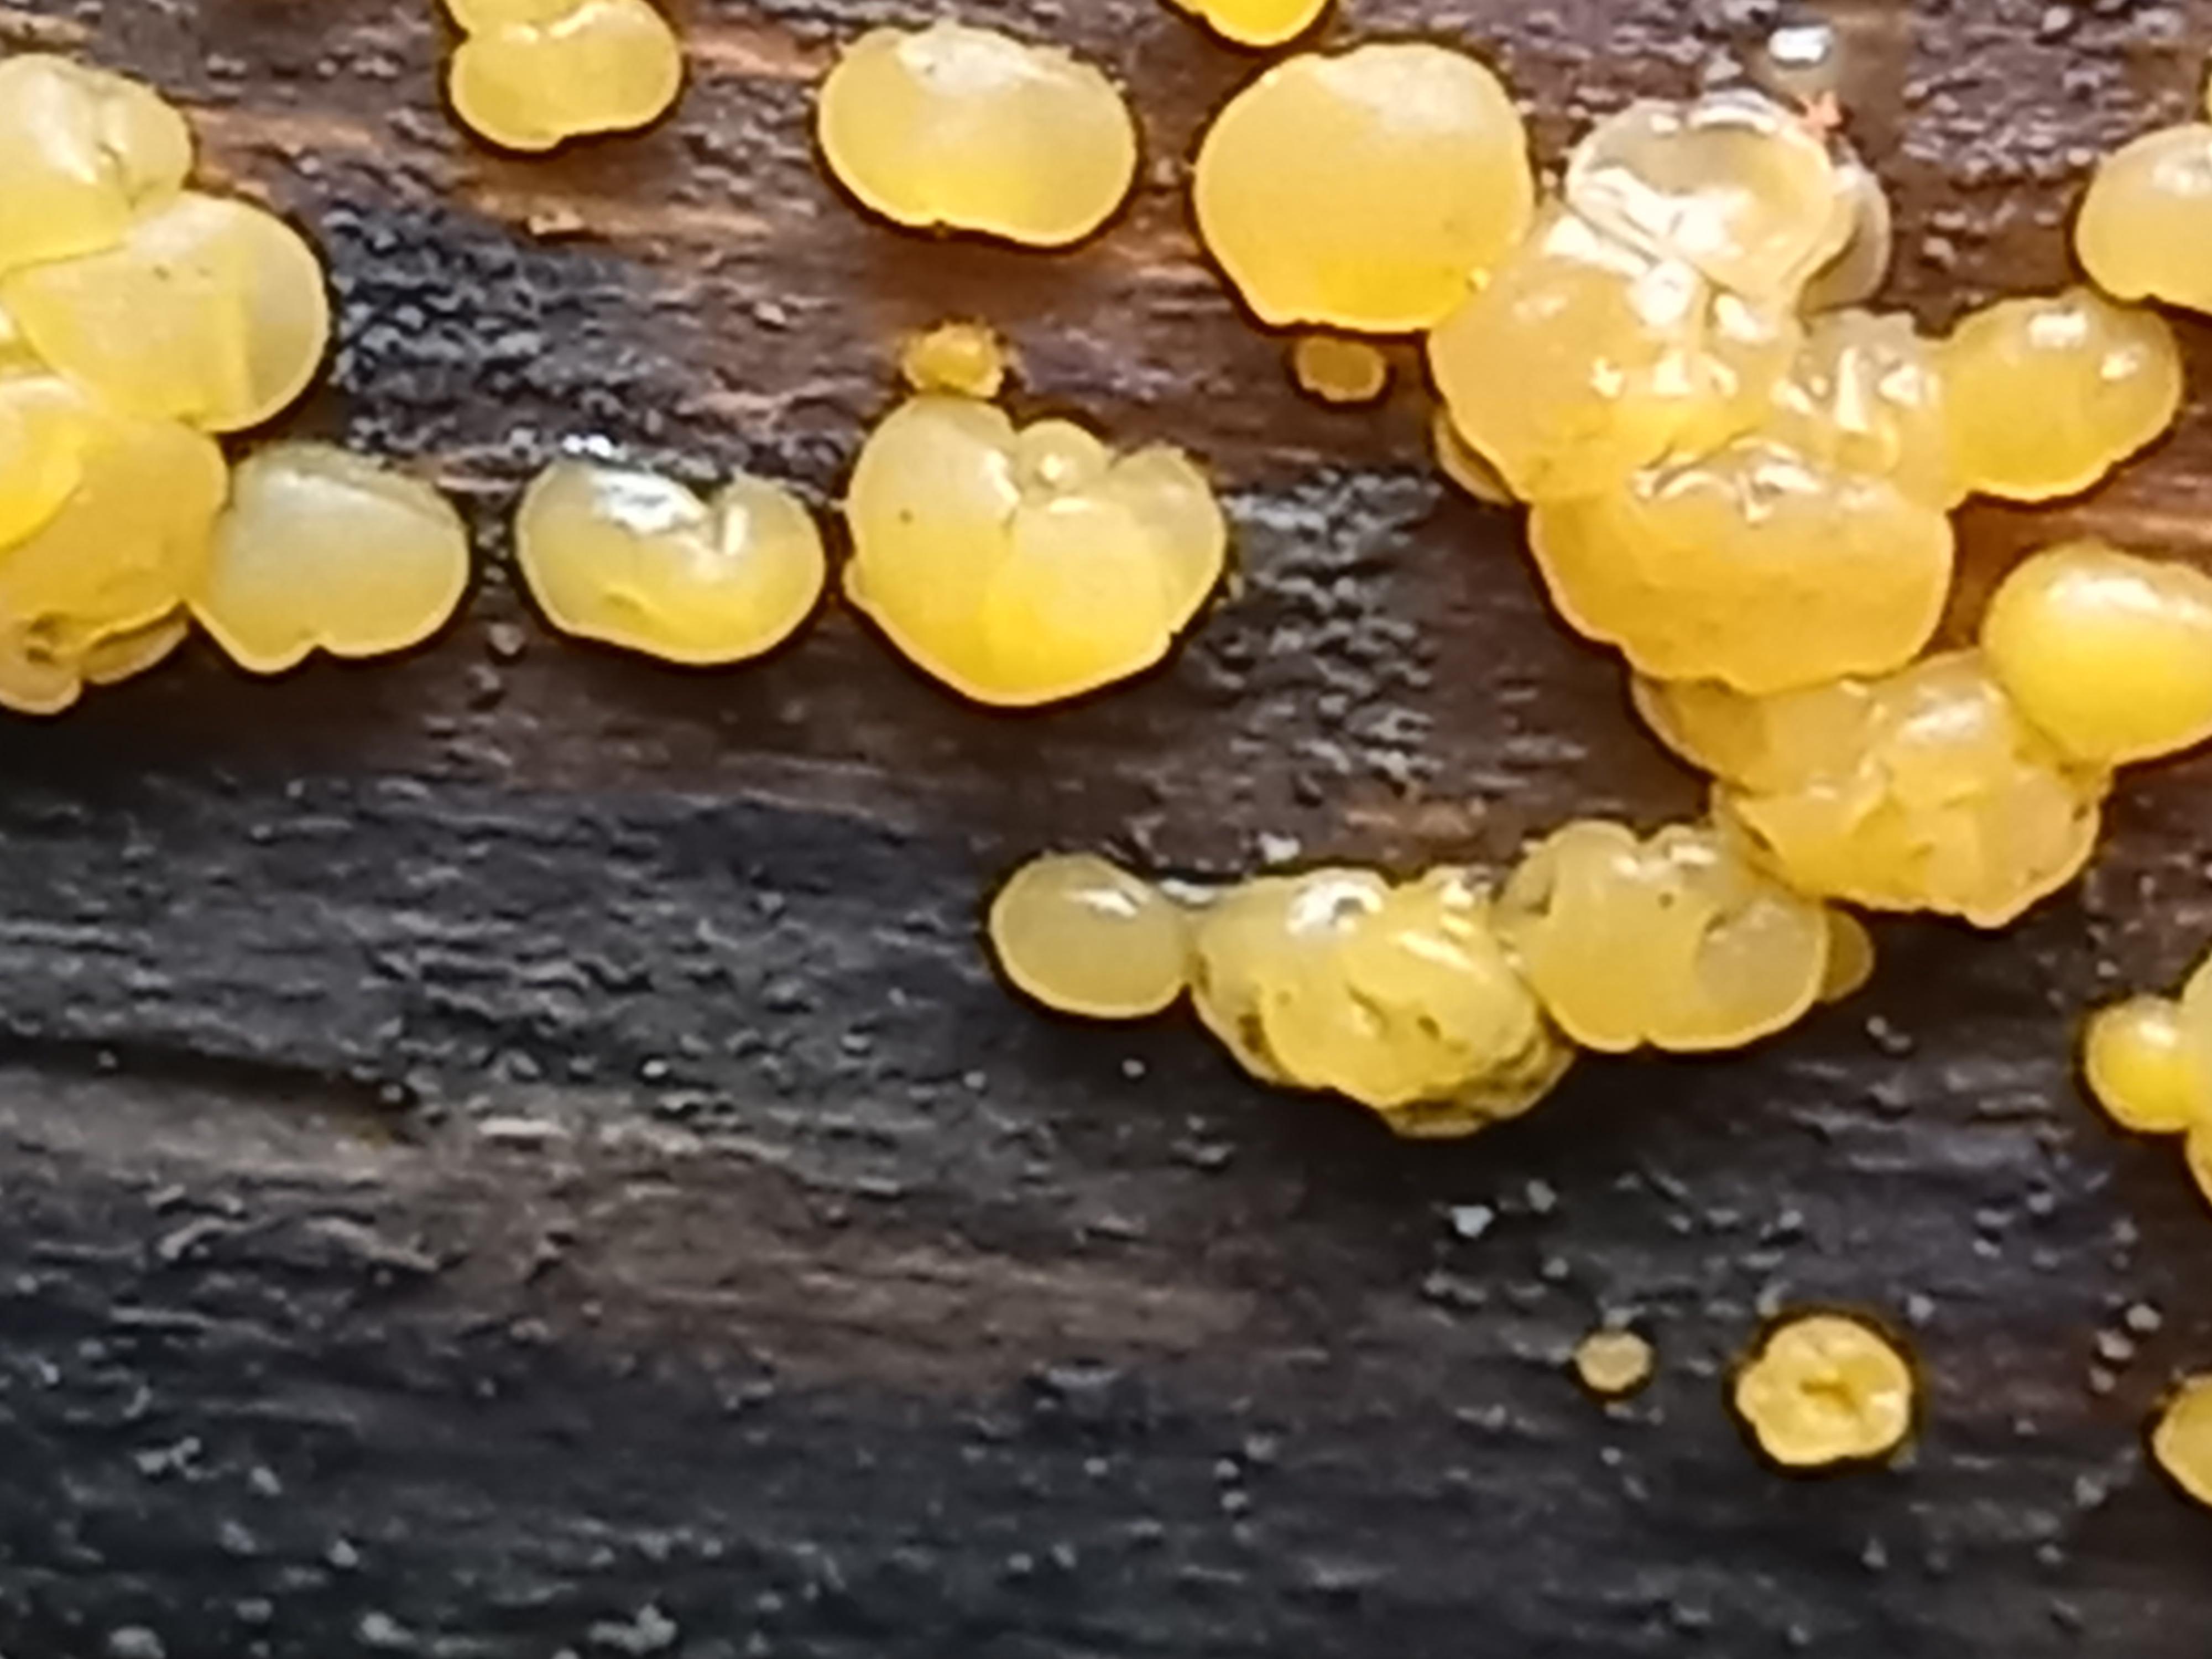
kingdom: Fungi
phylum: Basidiomycota
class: Dacrymycetes
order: Dacrymycetales
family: Dacrymycetaceae
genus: Dacrymyces
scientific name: Dacrymyces
